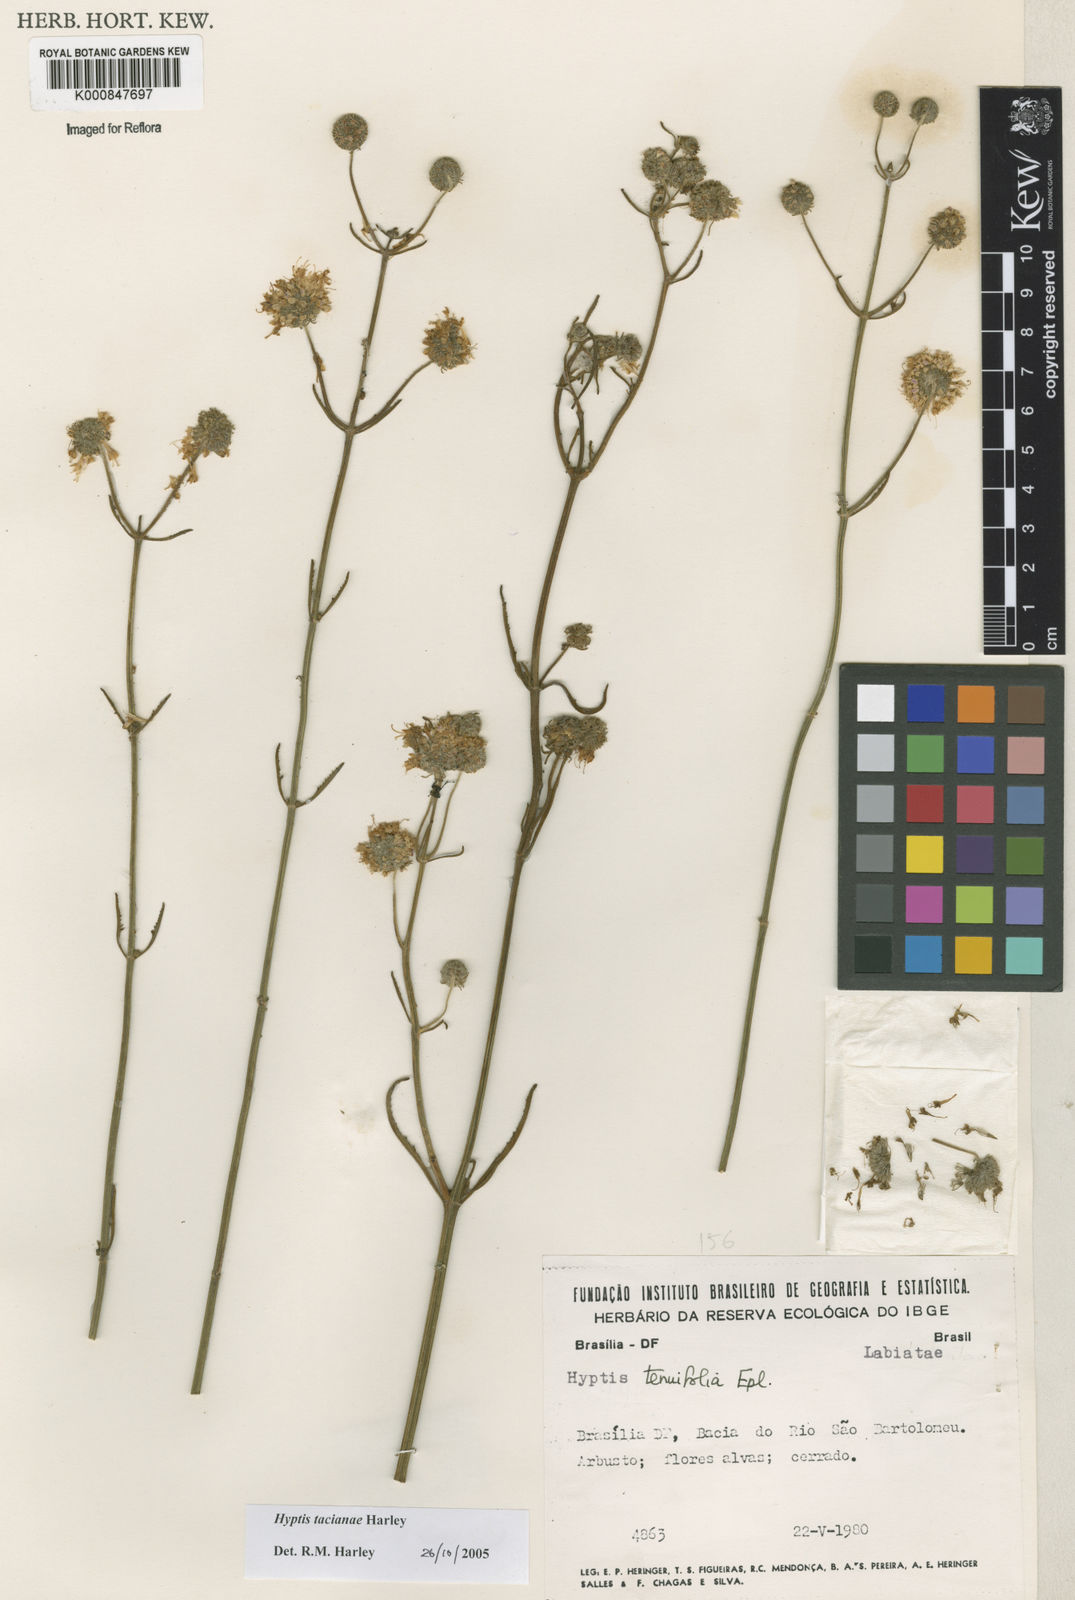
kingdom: Plantae
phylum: Tracheophyta
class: Magnoliopsida
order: Lamiales
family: Lamiaceae
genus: Cyanocephalus
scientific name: Cyanocephalus tacianae
